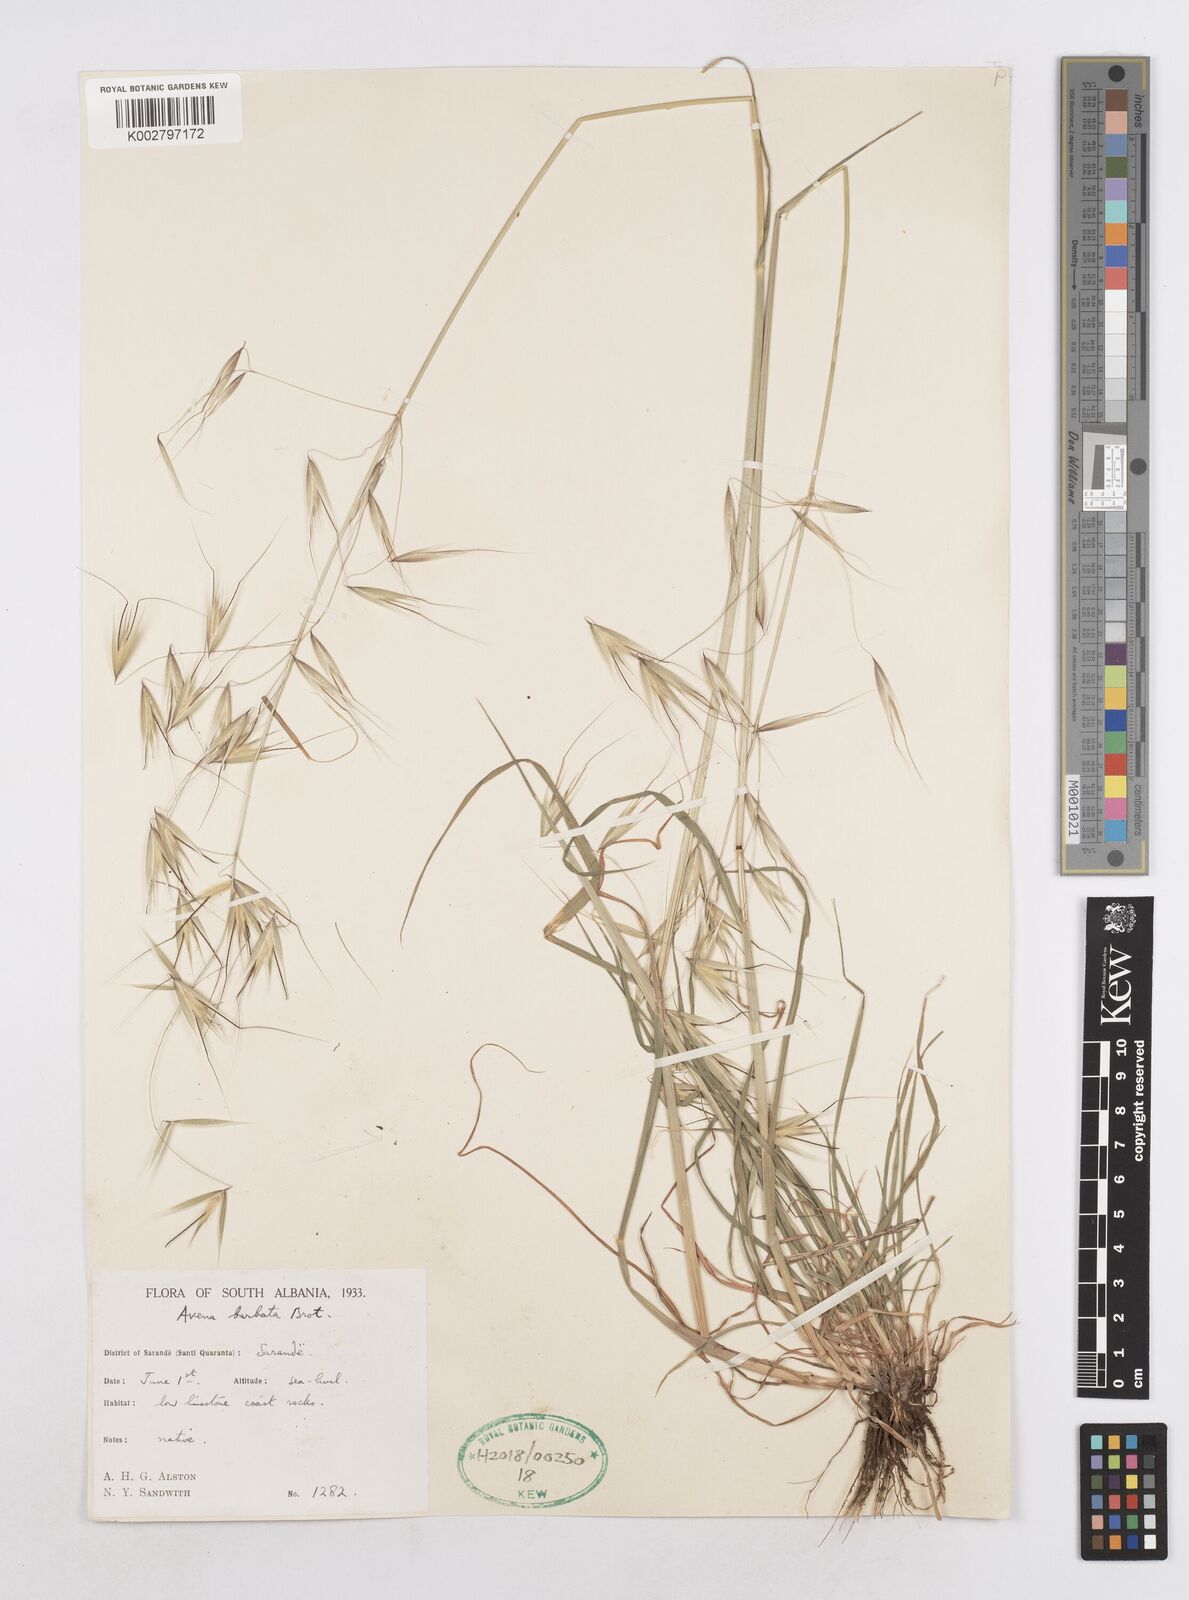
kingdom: Plantae
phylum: Tracheophyta
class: Liliopsida
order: Poales
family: Poaceae
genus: Avena
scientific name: Avena
